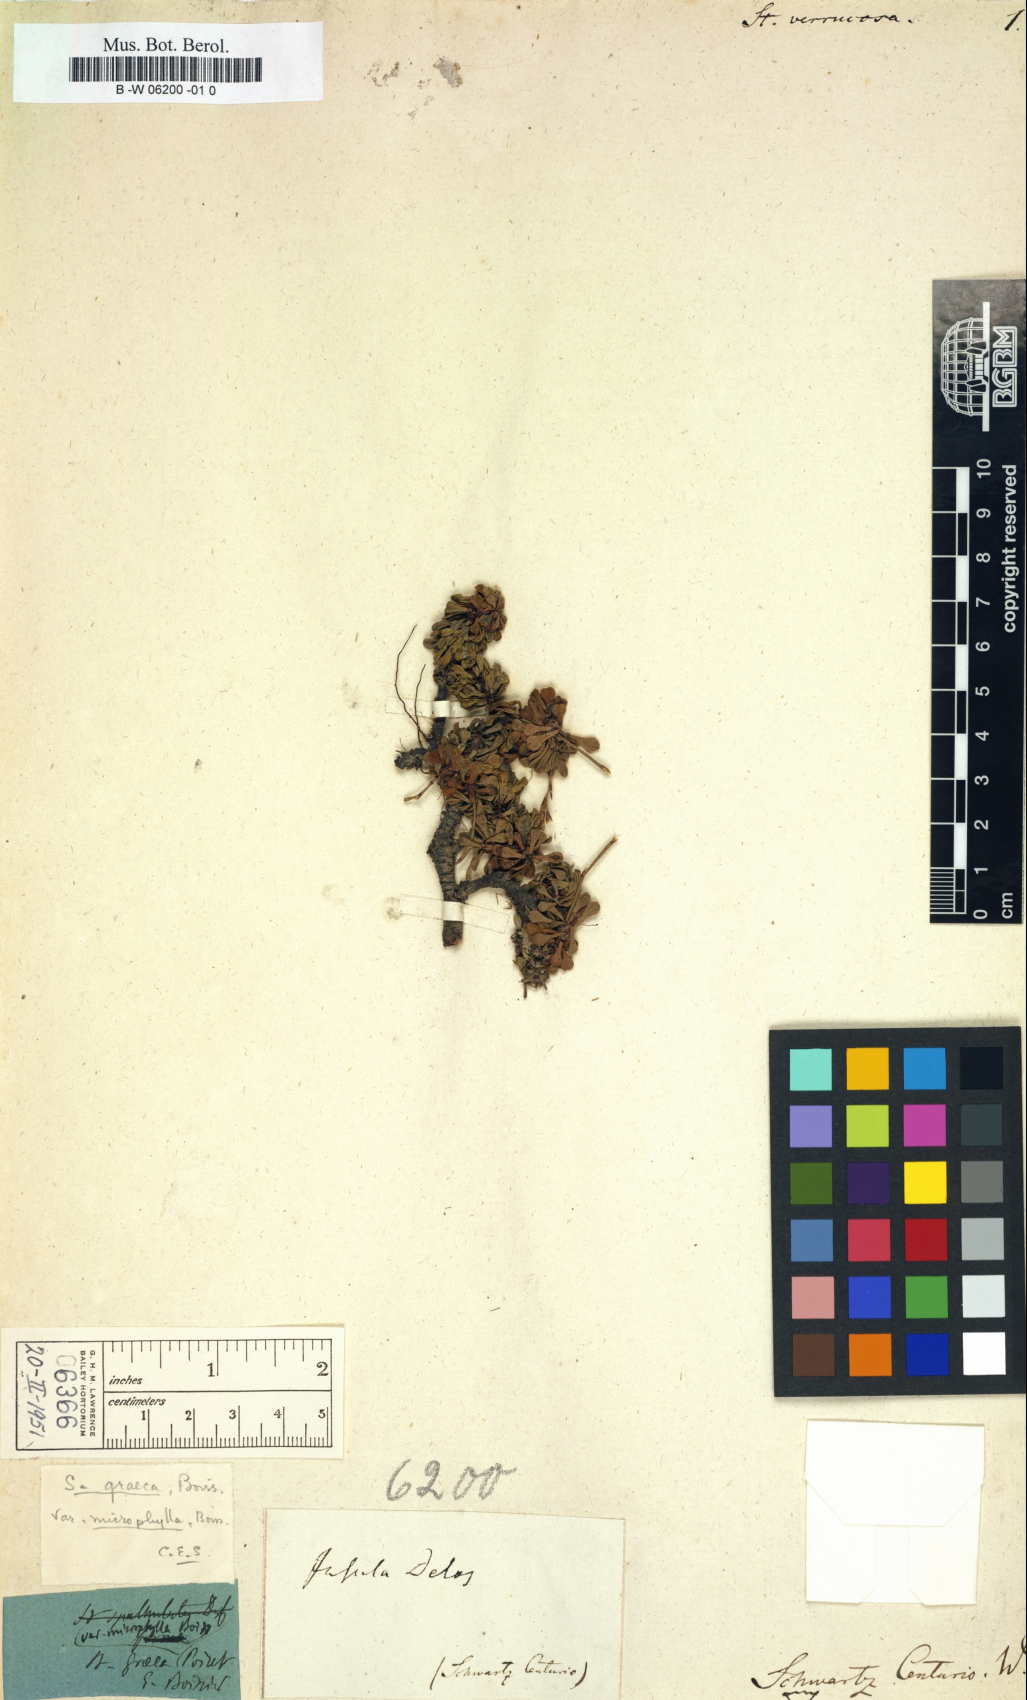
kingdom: Plantae
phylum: Tracheophyta
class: Magnoliopsida
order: Caryophyllales
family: Plumbaginaceae
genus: Limonium
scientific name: Limonium sieberi
